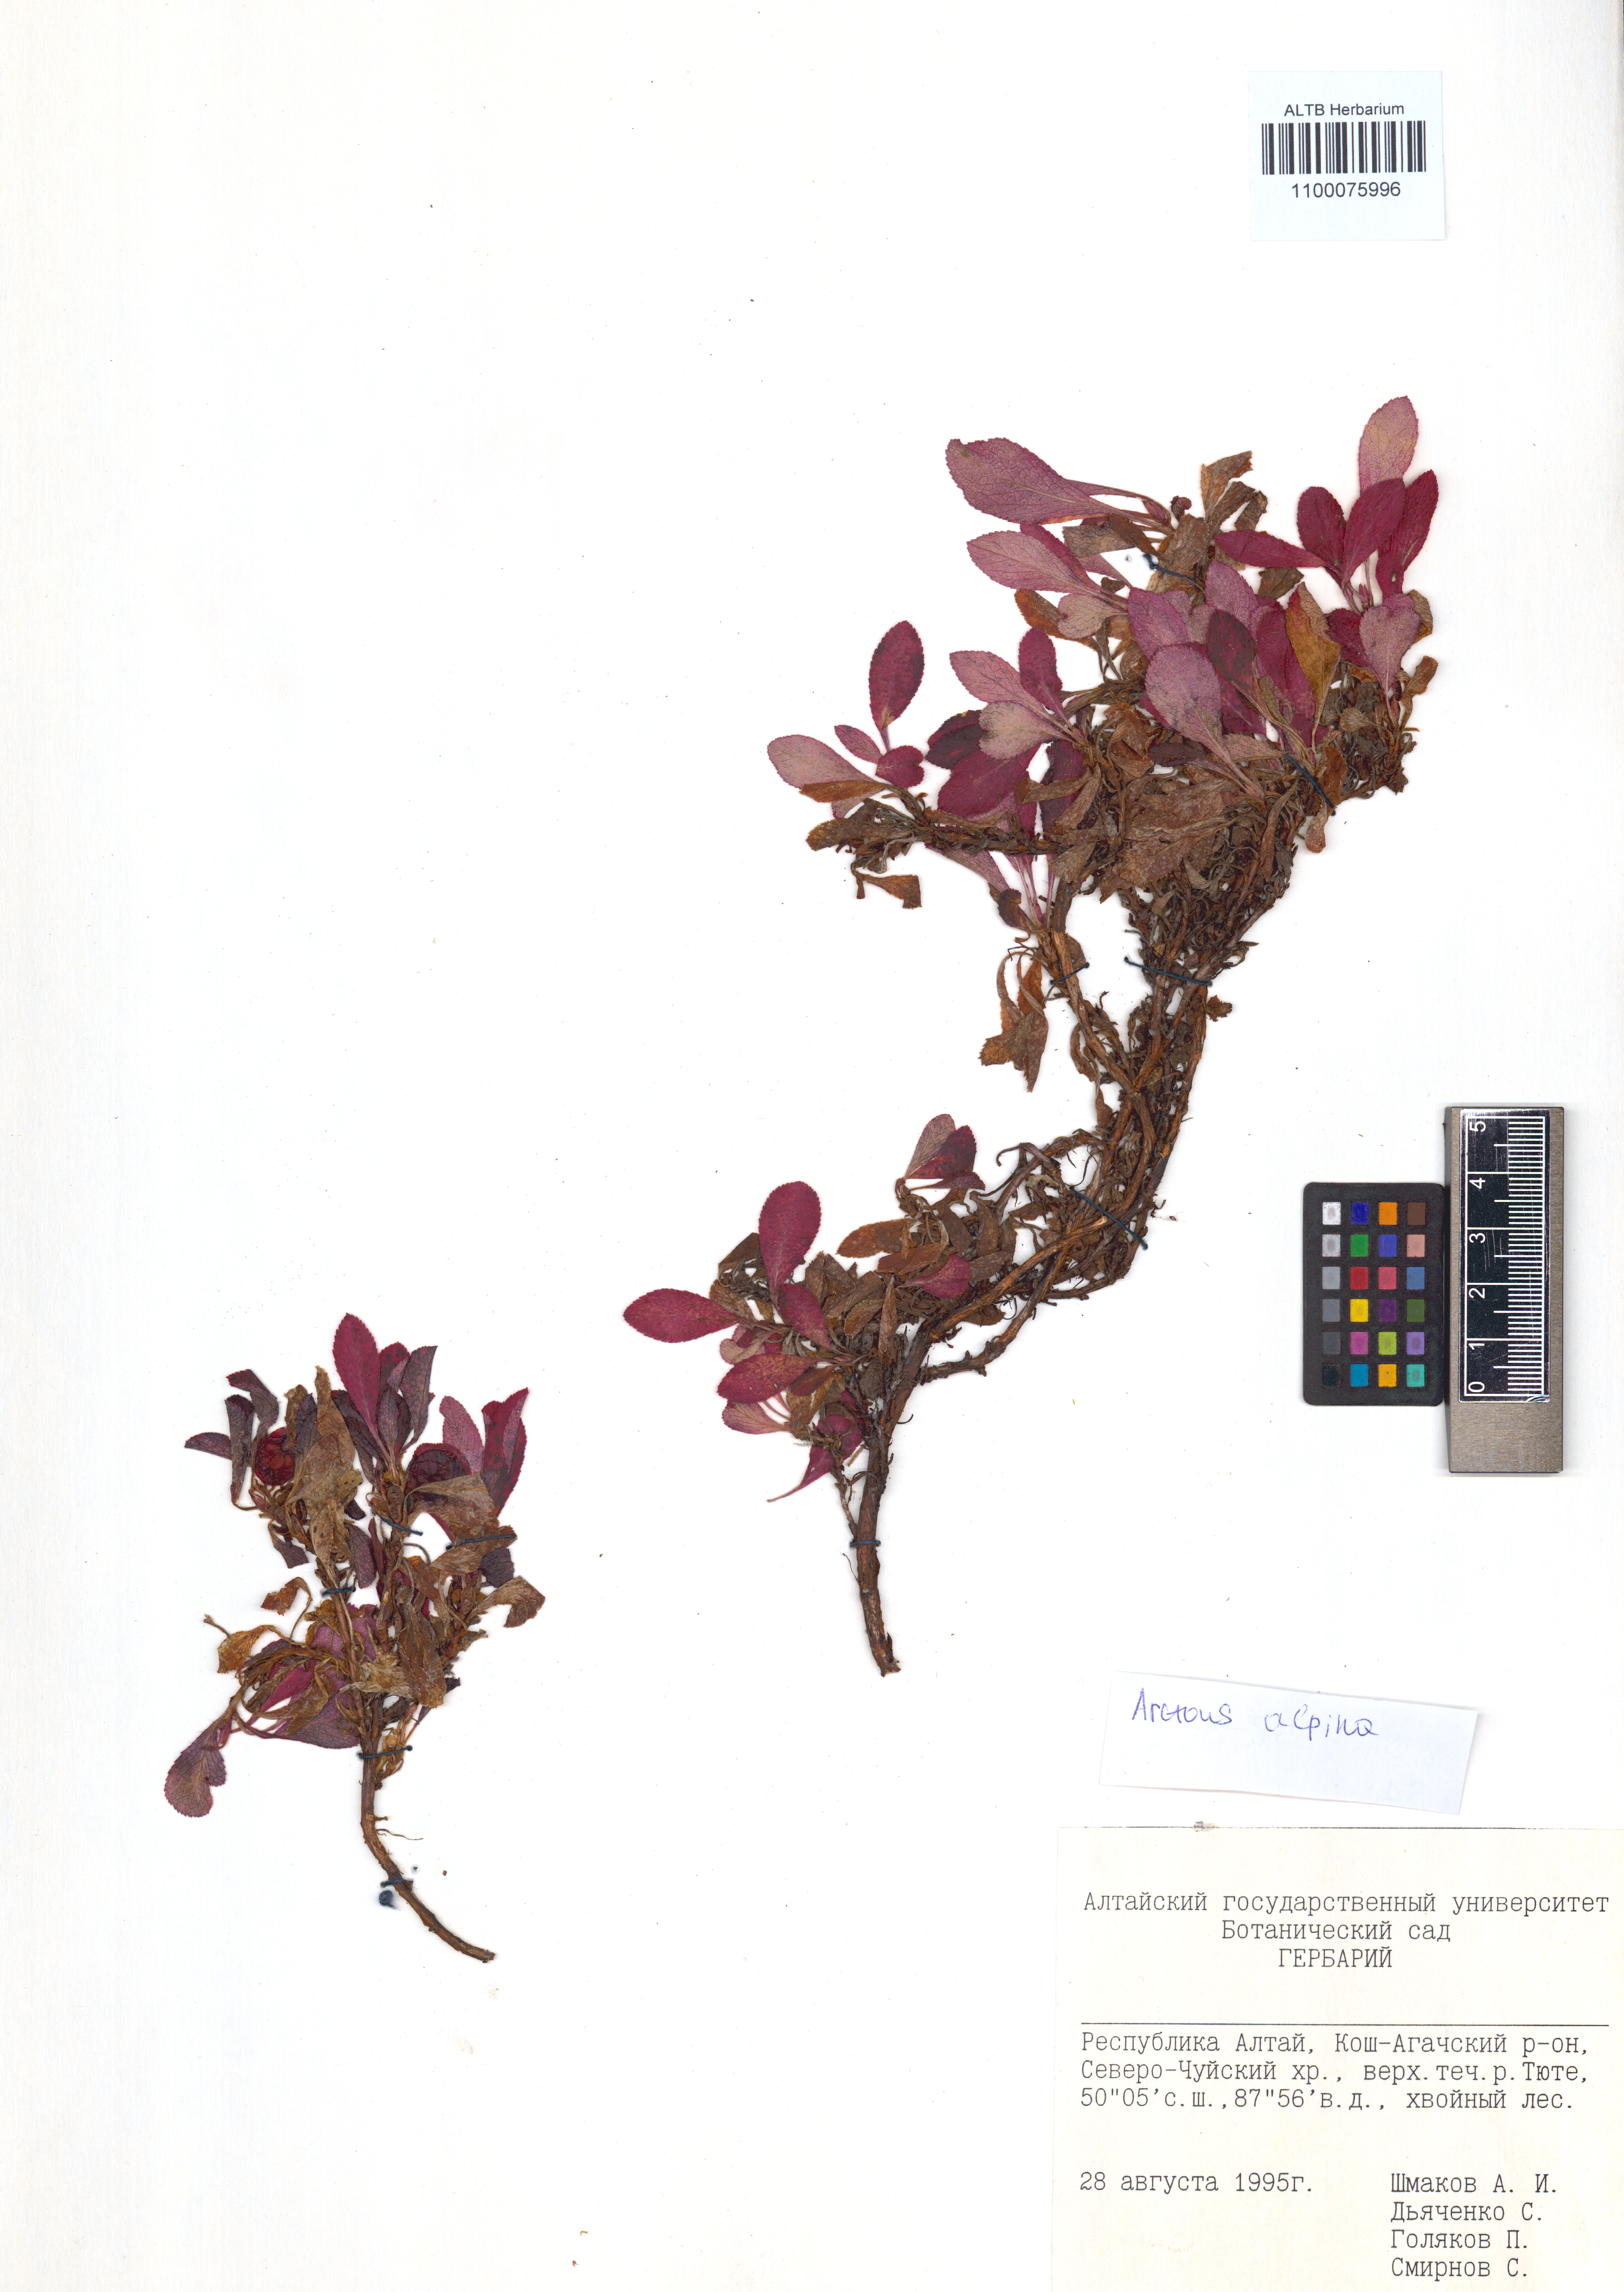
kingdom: Plantae
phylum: Tracheophyta
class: Magnoliopsida
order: Ericales
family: Ericaceae
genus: Arctostaphylos
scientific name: Arctostaphylos alpinus
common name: Alpine bearberry
